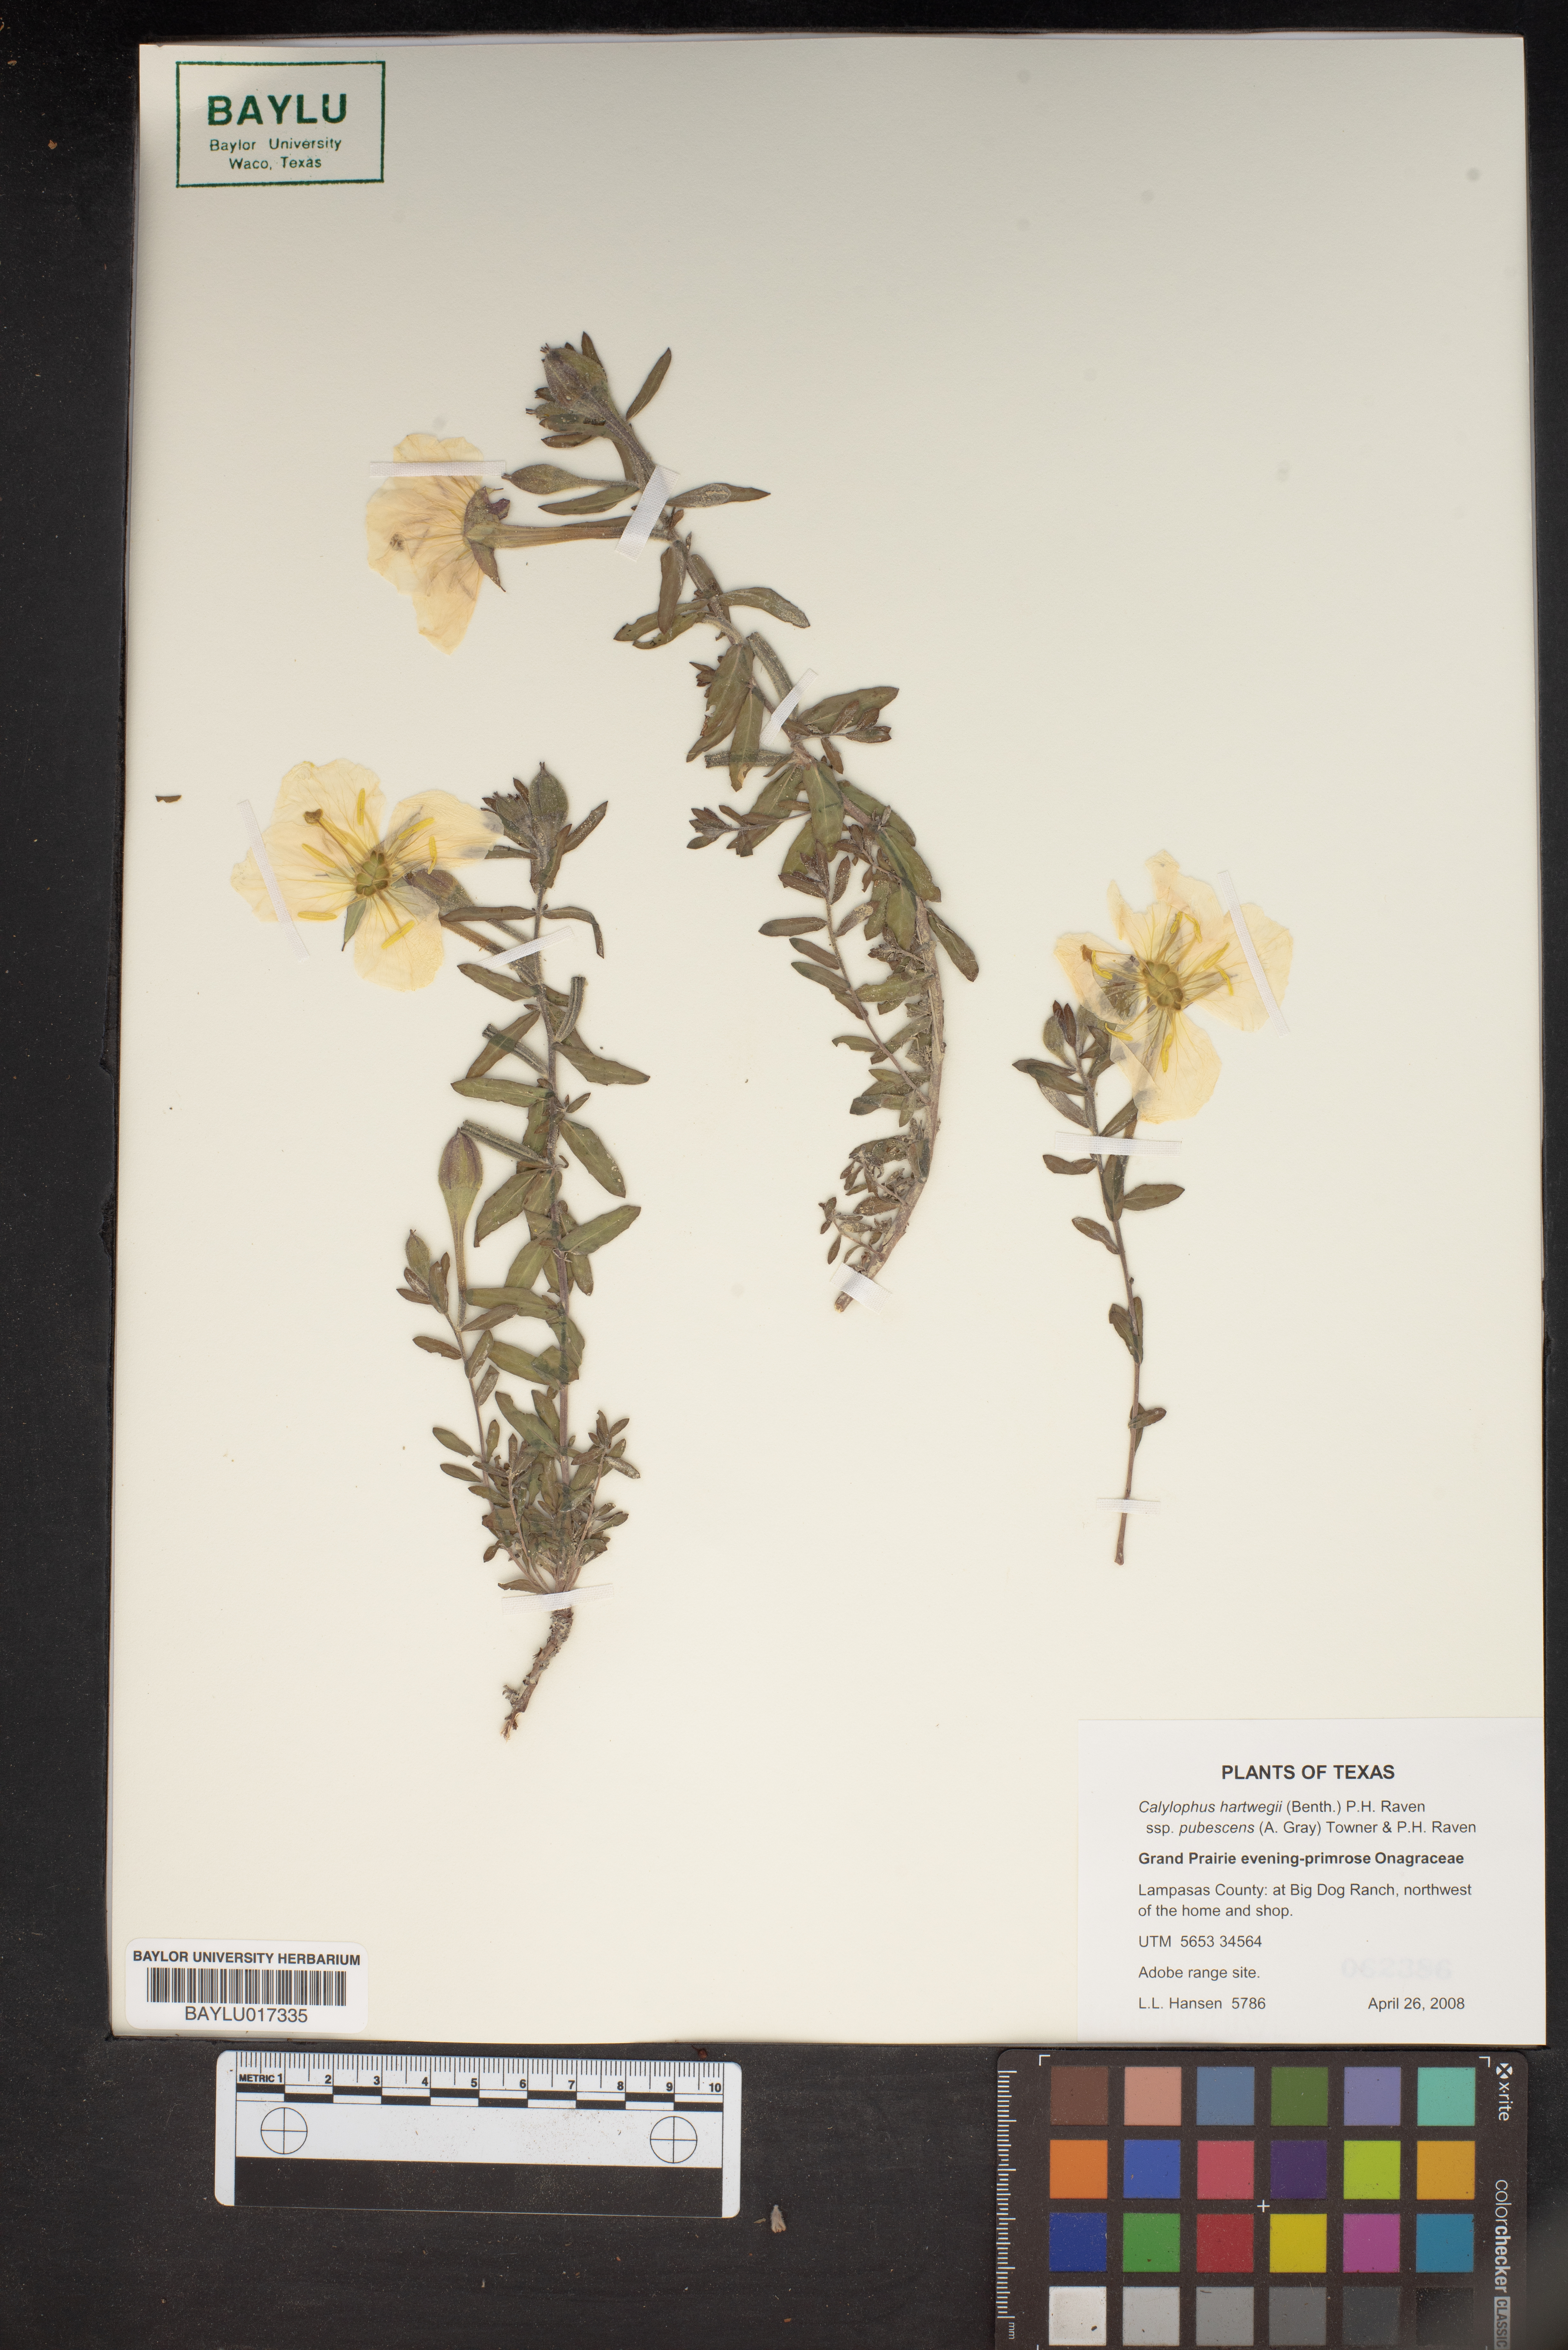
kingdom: Plantae
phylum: Tracheophyta
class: Magnoliopsida
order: Myrtales
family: Onagraceae
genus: Oenothera
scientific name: Oenothera hartwegii
